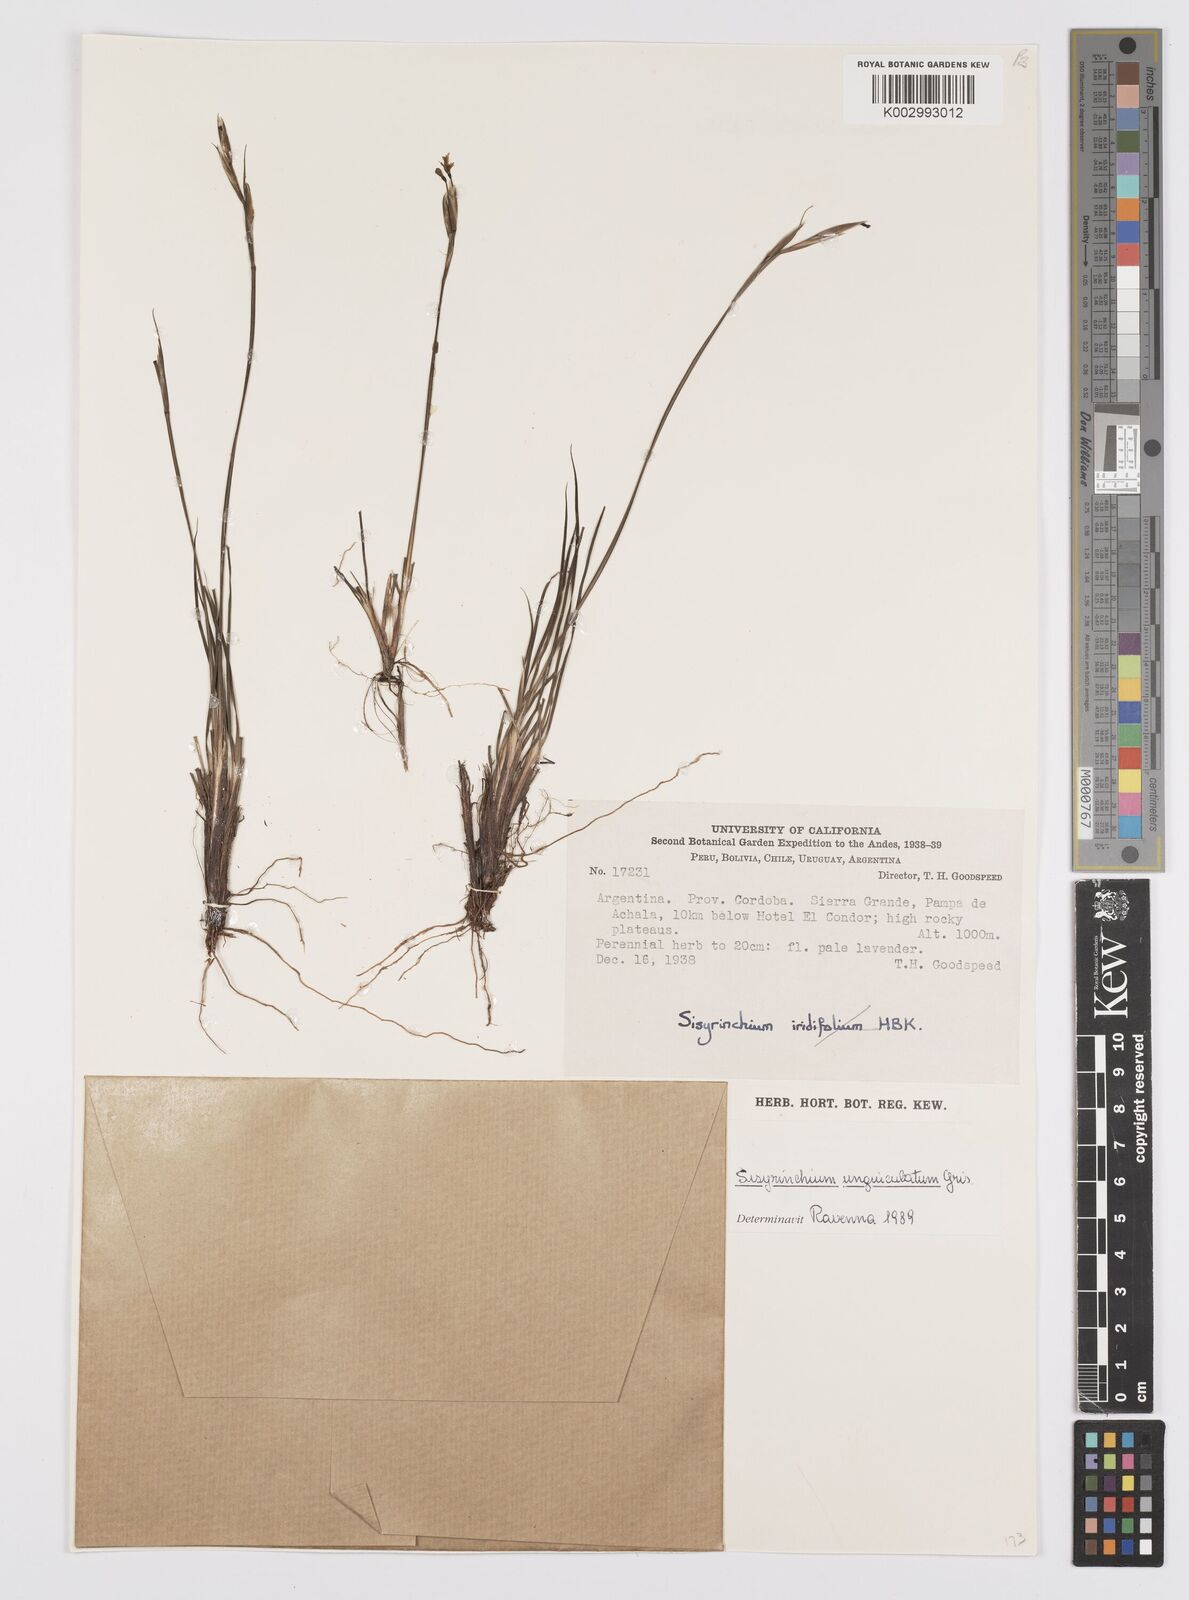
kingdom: Plantae
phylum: Tracheophyta
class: Liliopsida
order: Asparagales
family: Iridaceae
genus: Sisyrinchium
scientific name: Sisyrinchium
